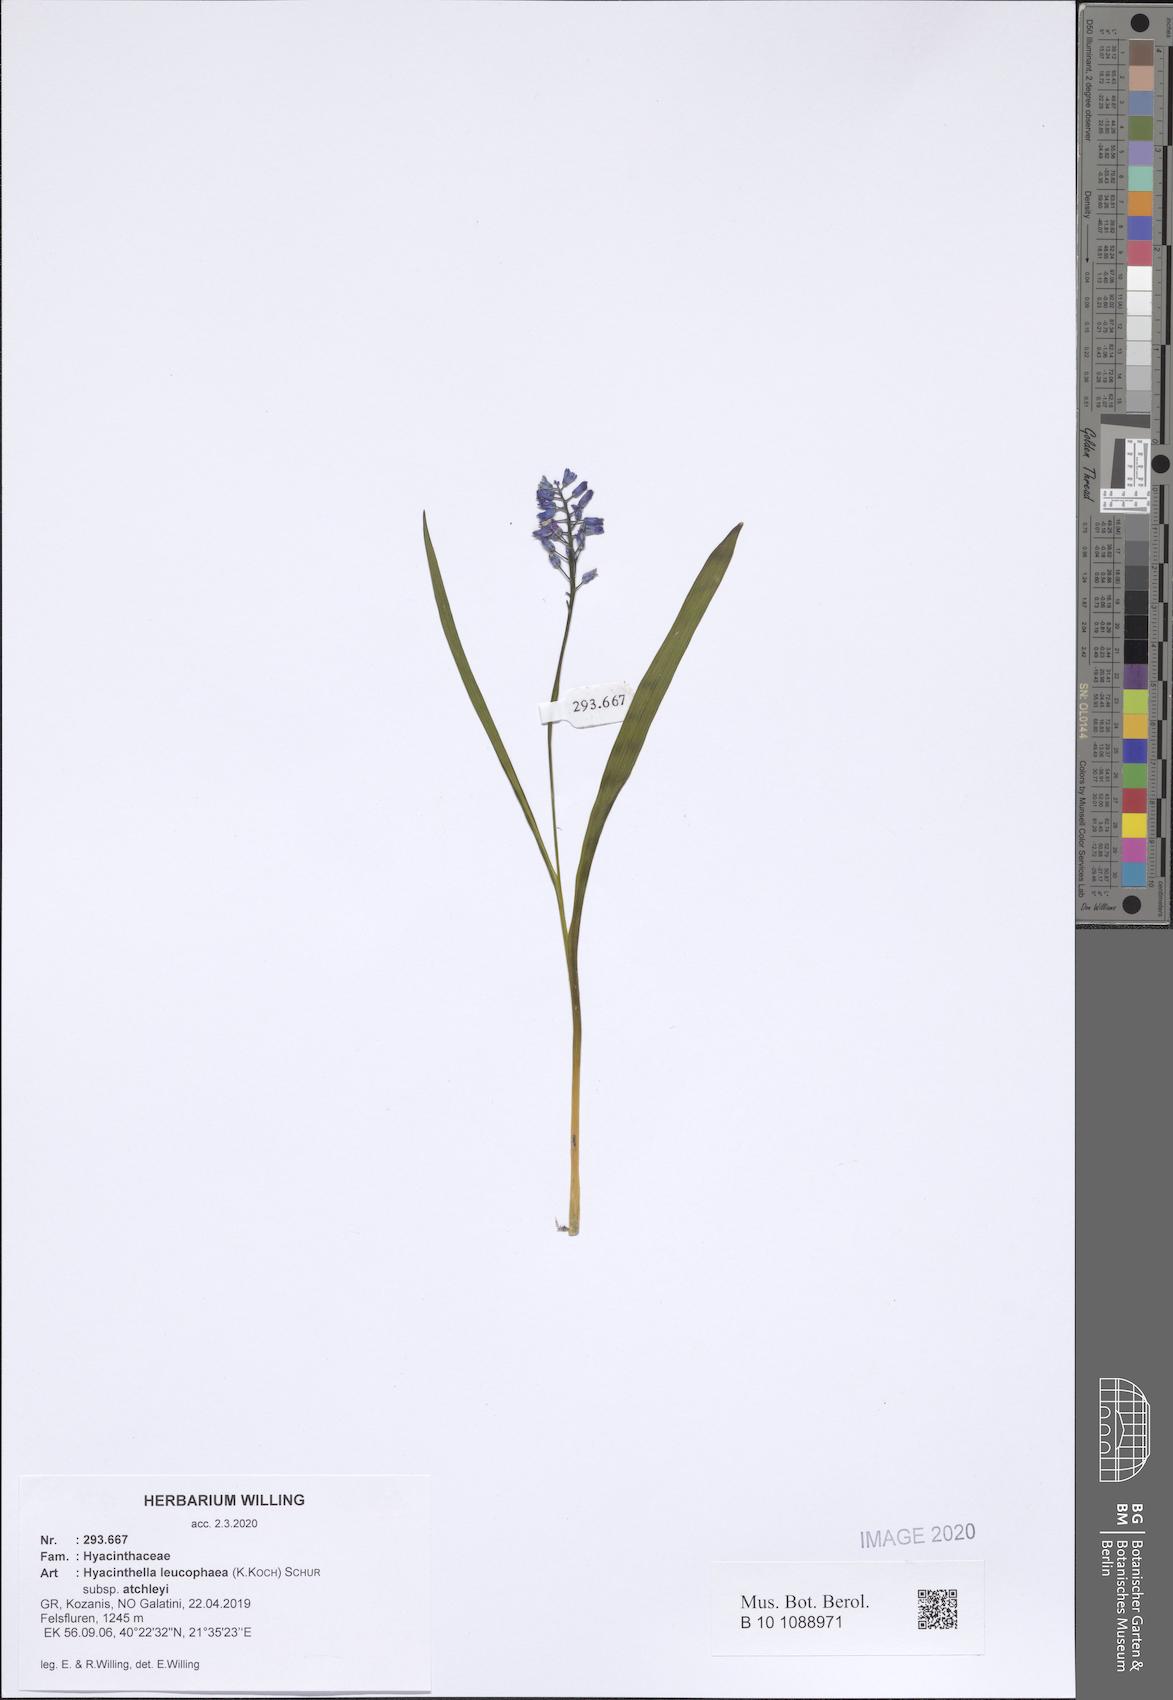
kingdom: Plantae
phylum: Tracheophyta
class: Liliopsida
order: Asparagales
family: Asparagaceae
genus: Hyacinthella
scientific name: Hyacinthella leucophaea
